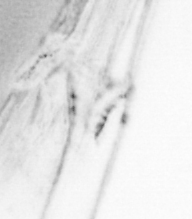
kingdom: Animalia
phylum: Chordata
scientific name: Chordata
